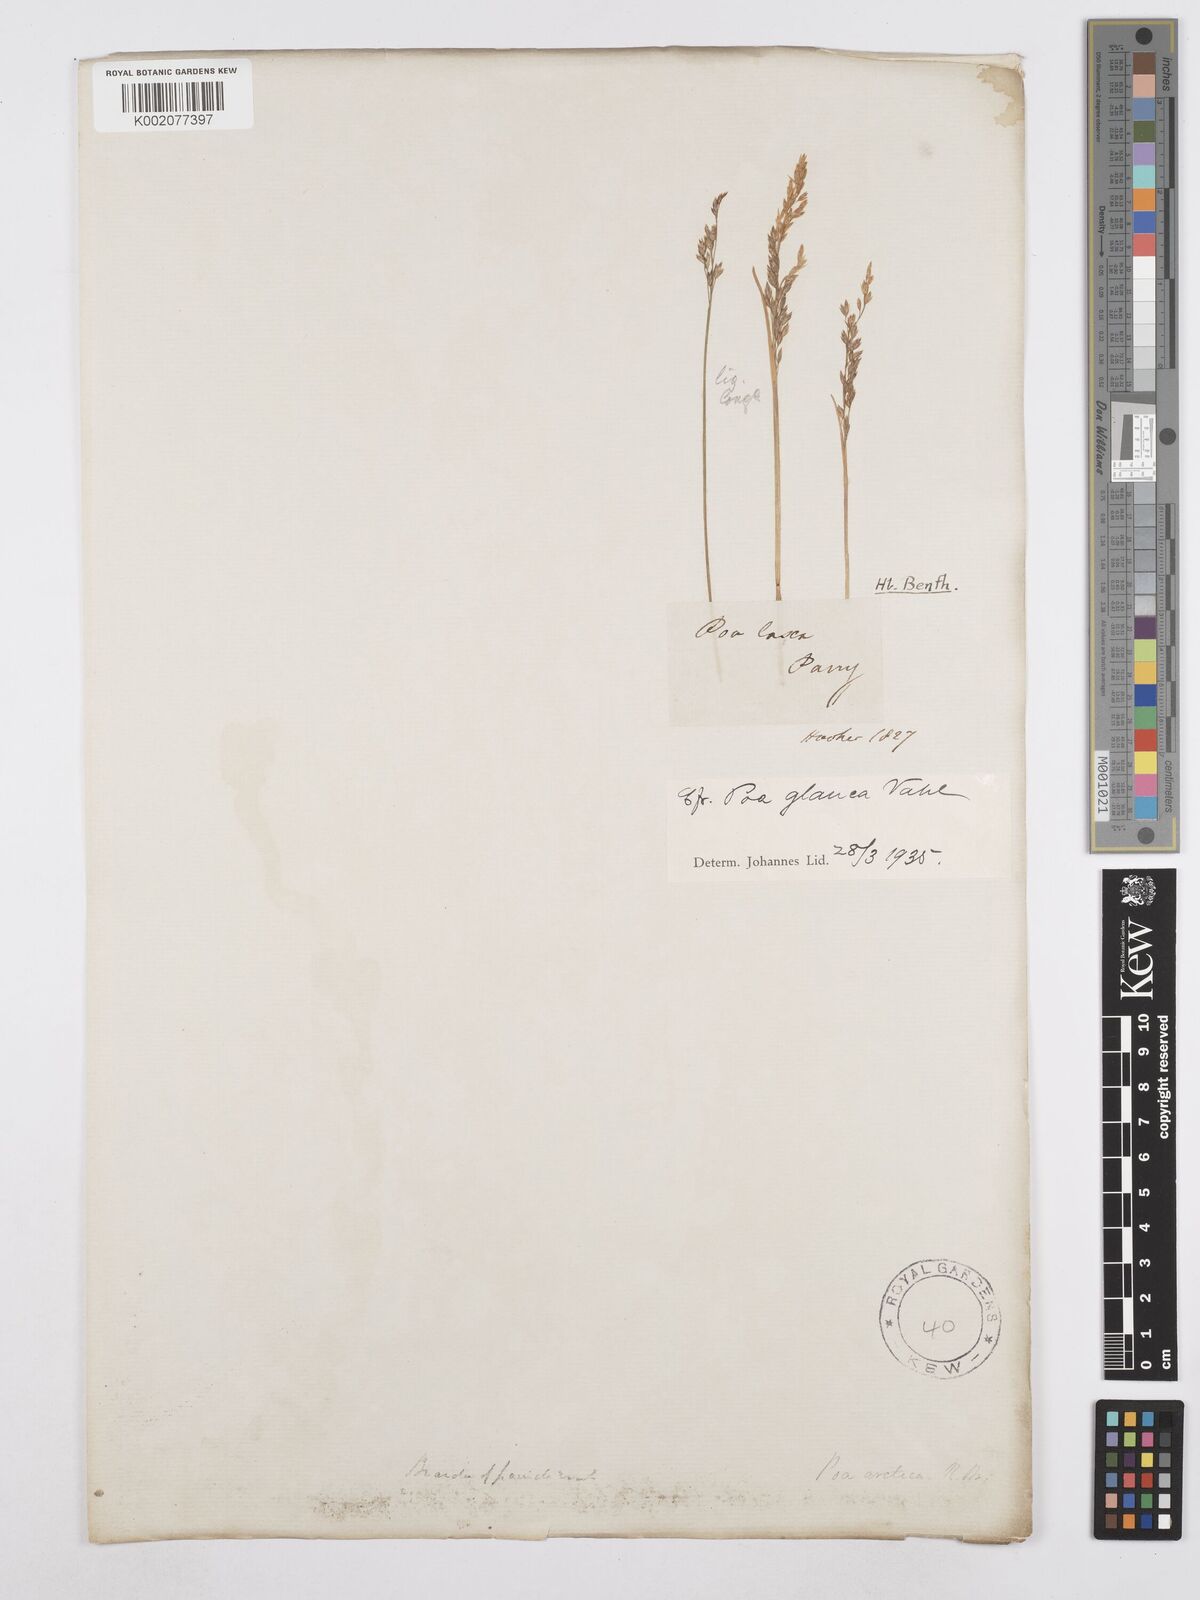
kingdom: Plantae
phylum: Tracheophyta
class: Liliopsida
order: Poales
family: Poaceae
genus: Poa
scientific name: Poa glauca
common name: Glaucous bluegrass
